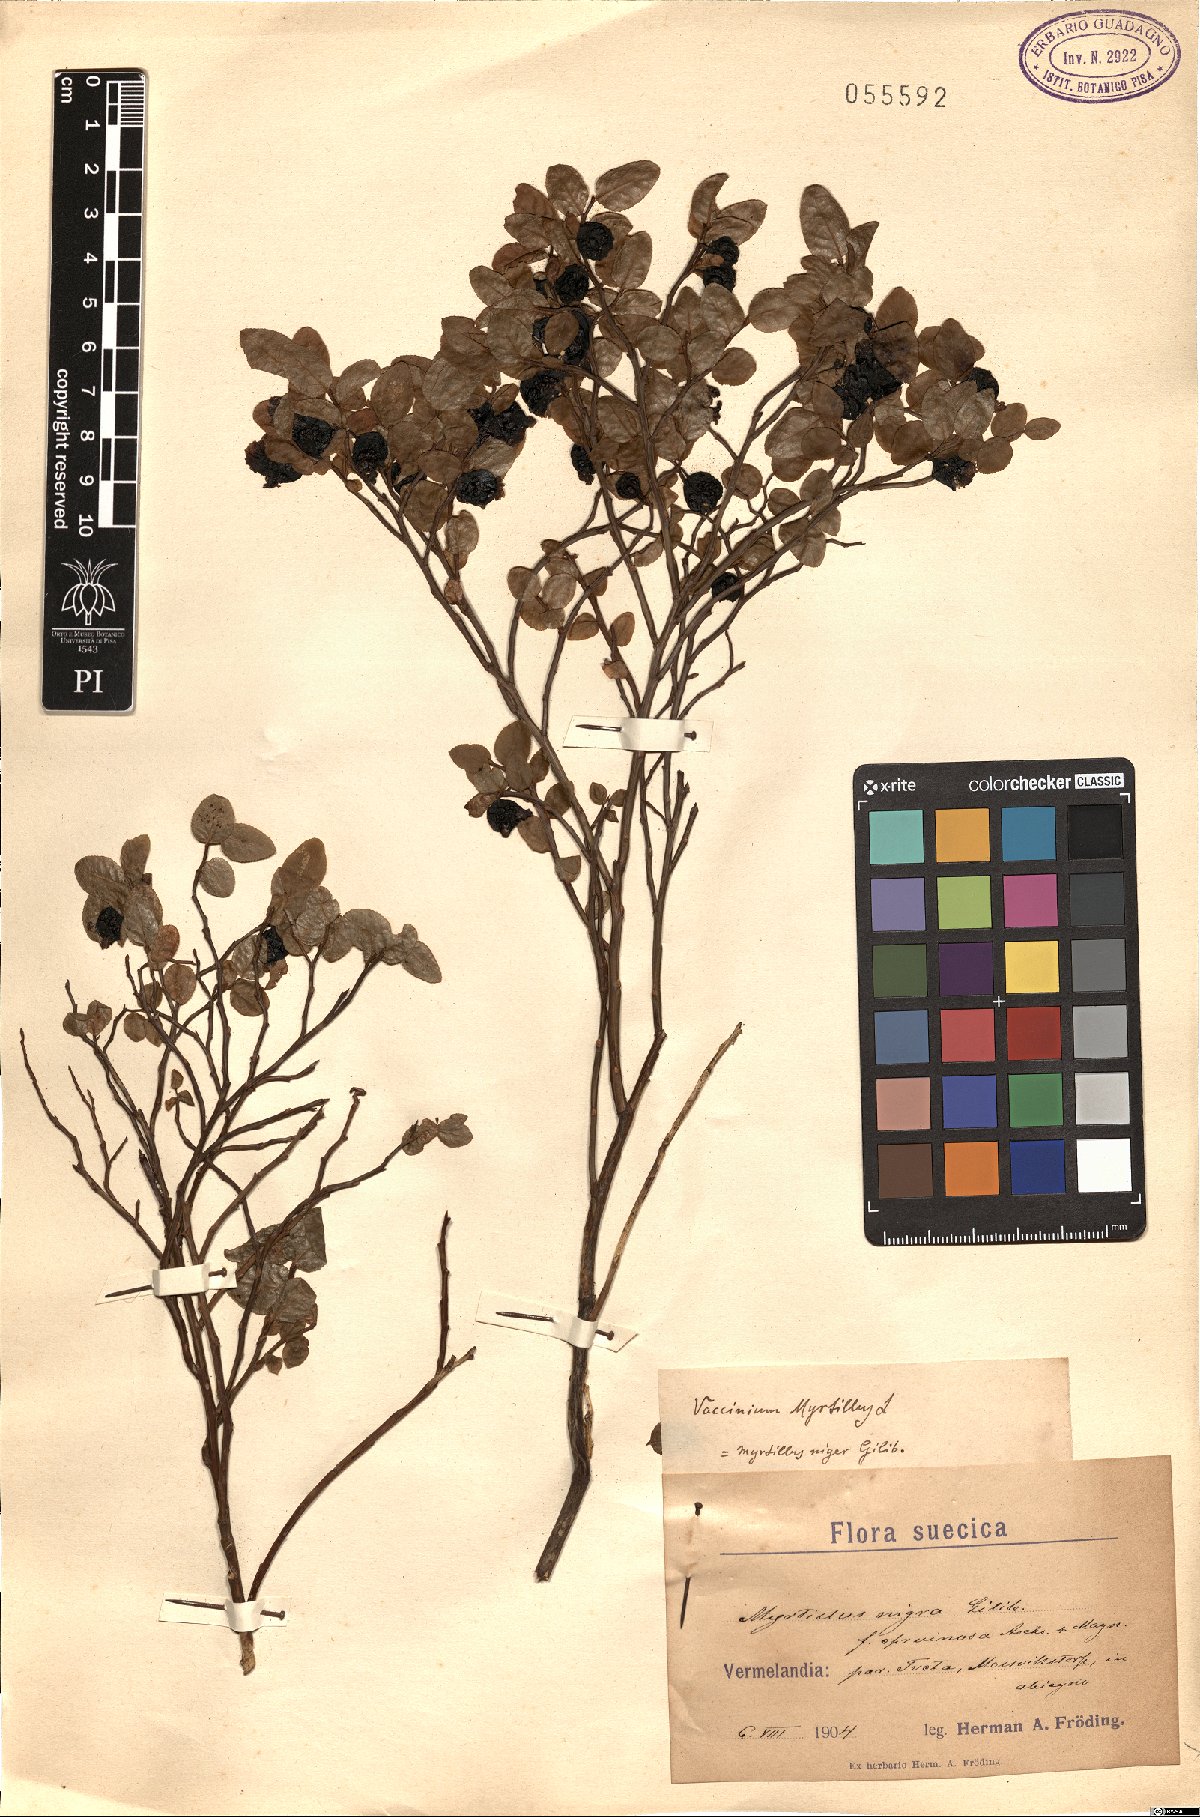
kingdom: Plantae
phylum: Tracheophyta
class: Magnoliopsida
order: Ericales
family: Ericaceae
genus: Vaccinium
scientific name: Vaccinium myrtillus
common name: Bilberry
